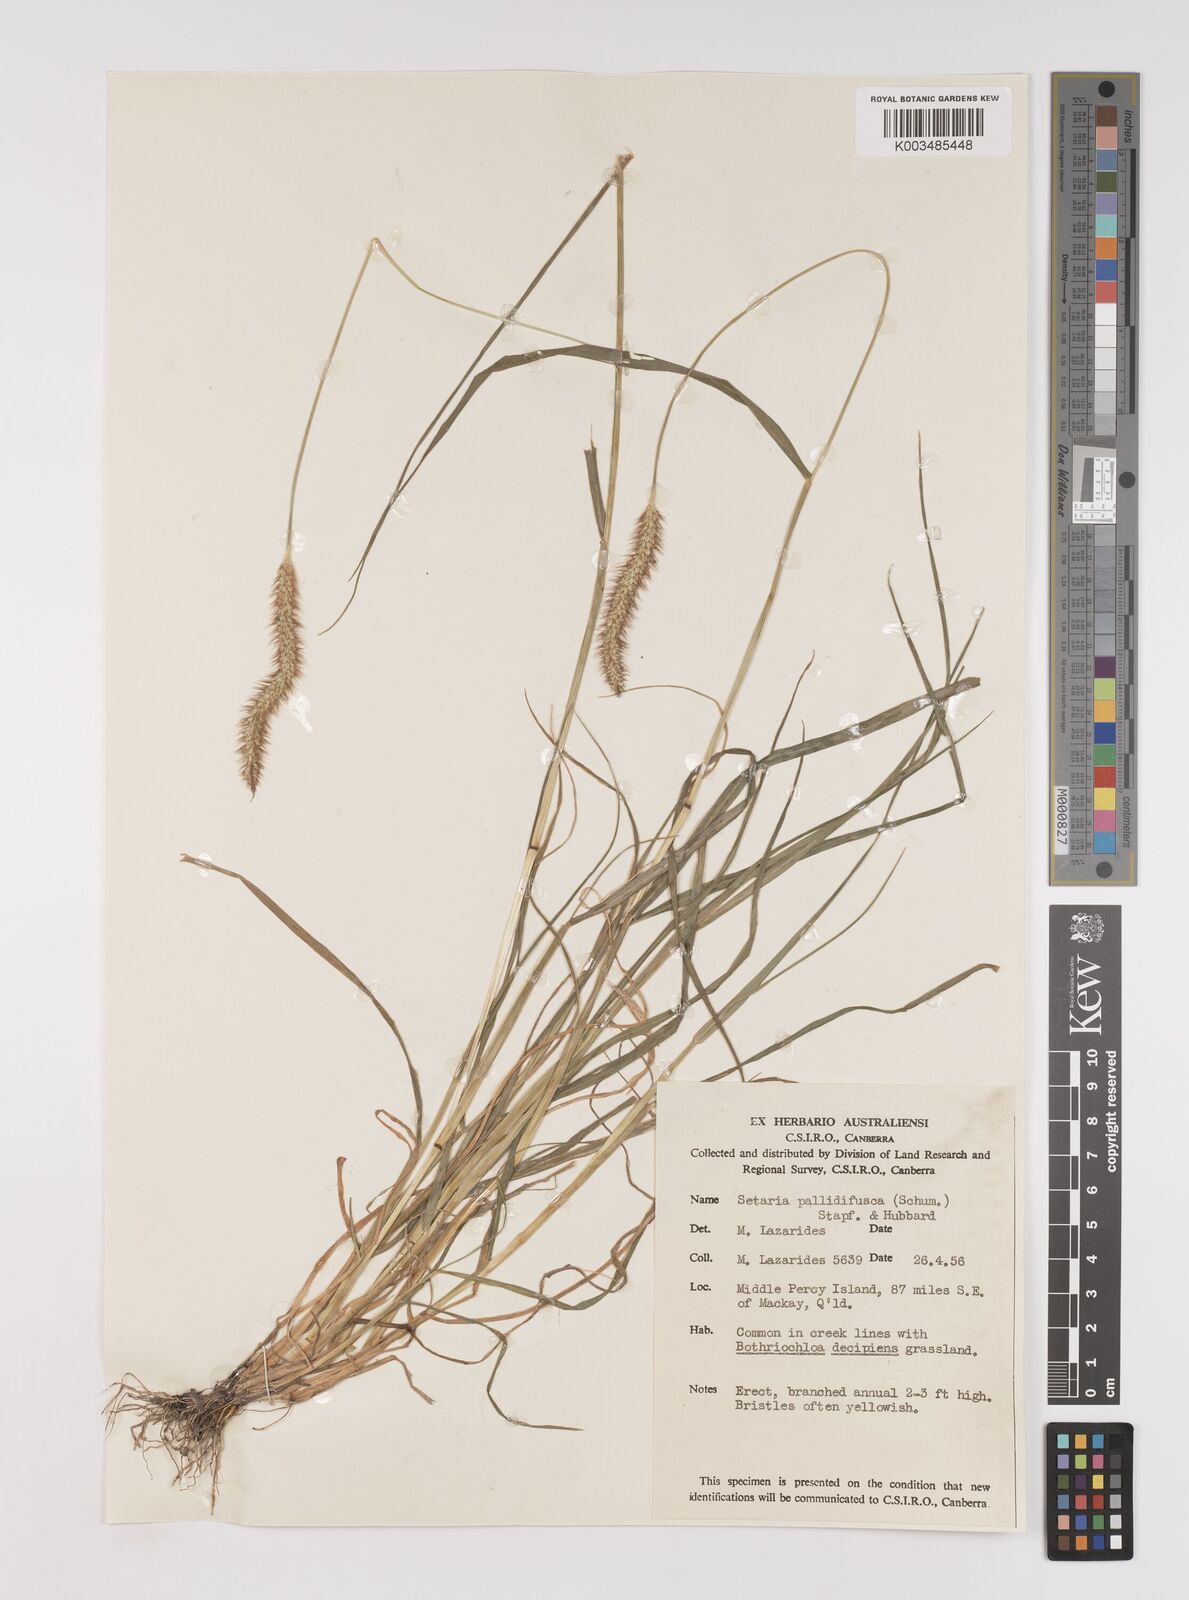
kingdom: Plantae
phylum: Tracheophyta
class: Liliopsida
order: Poales
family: Poaceae
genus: Setaria
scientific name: Setaria pumila
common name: Yellow bristle-grass
